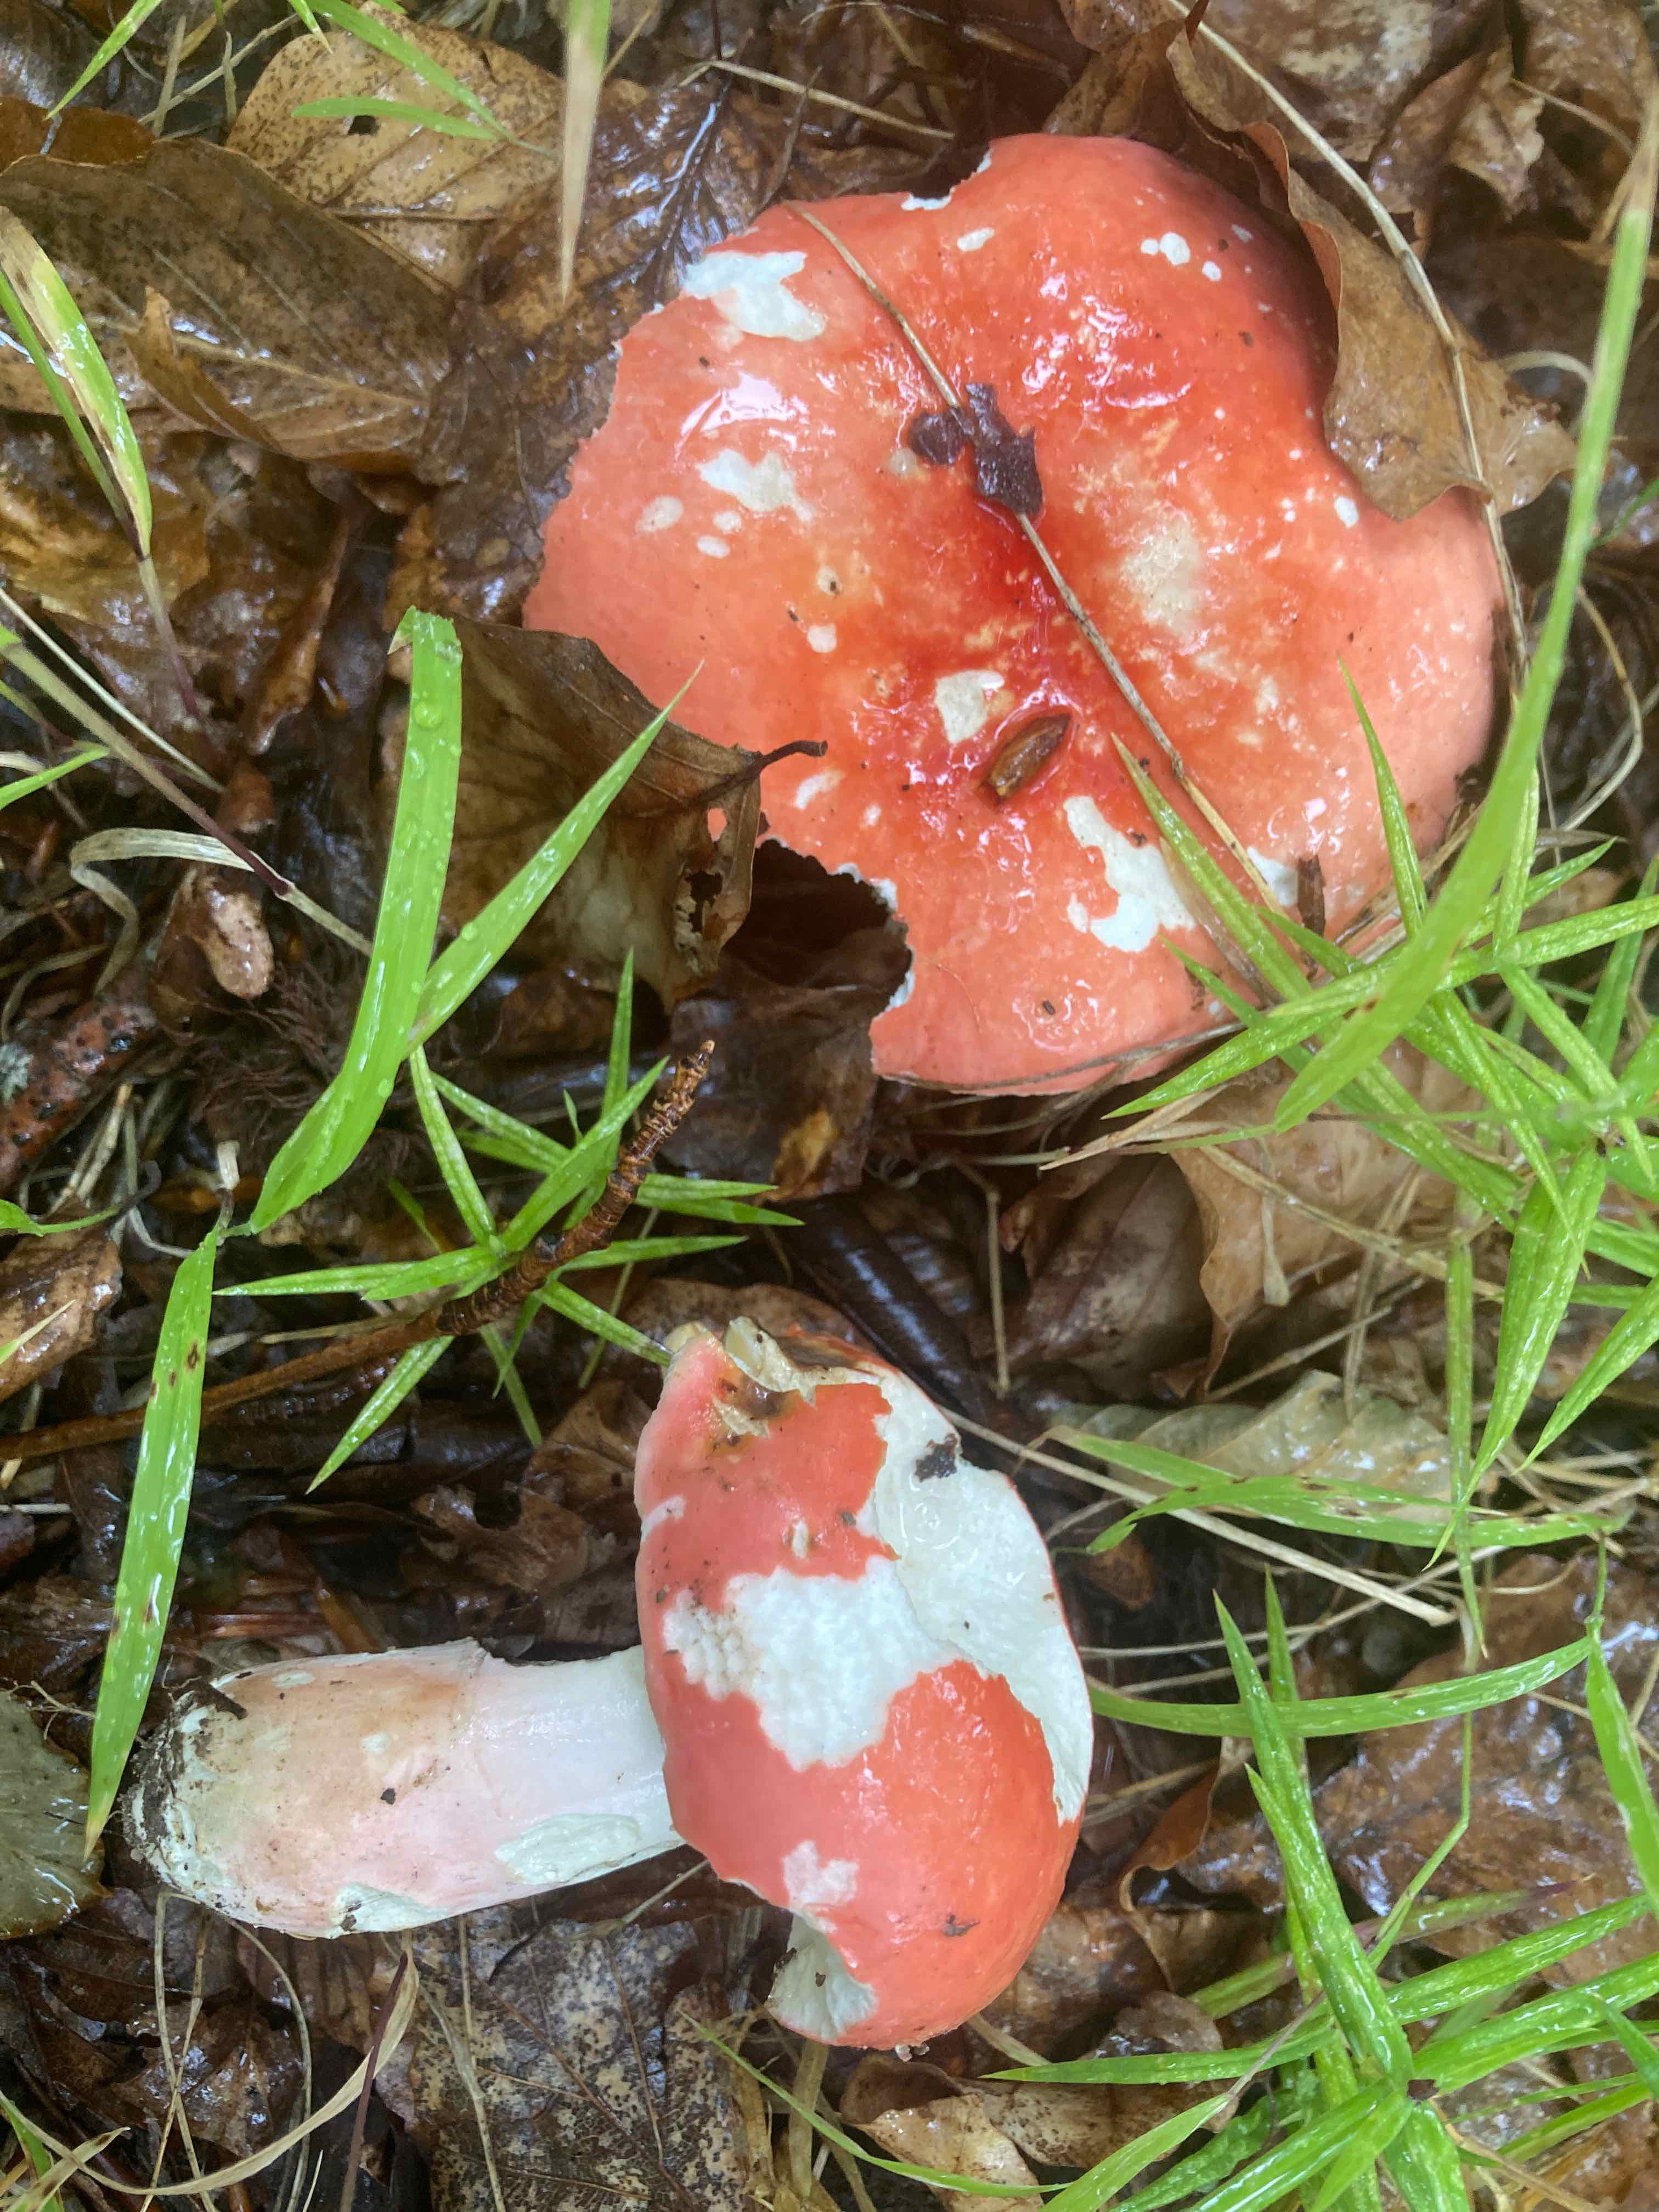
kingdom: Fungi
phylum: Basidiomycota
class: Agaricomycetes
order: Russulales
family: Russulaceae
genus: Russula
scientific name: Russula rosea
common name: fastkødet skørhat
